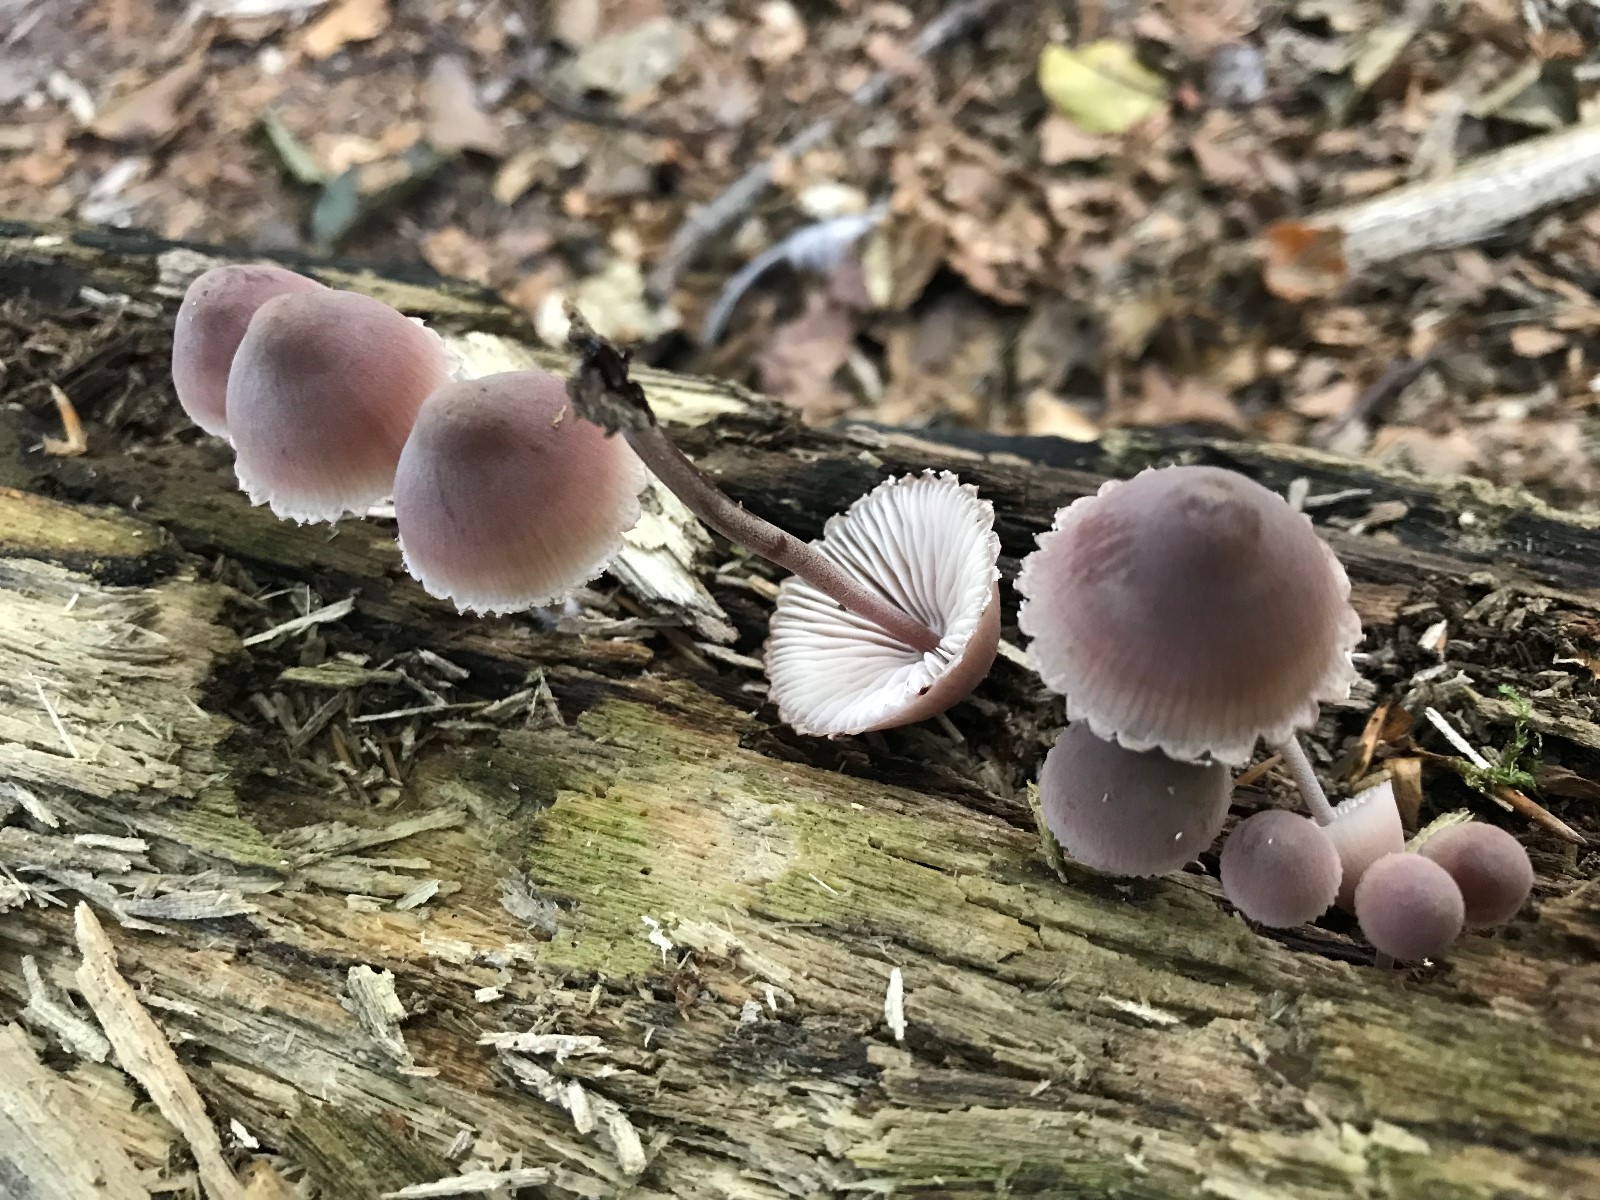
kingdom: Fungi
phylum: Basidiomycota
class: Agaricomycetes
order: Agaricales
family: Mycenaceae
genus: Mycena
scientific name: Mycena haematopus
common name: blødende huesvamp
